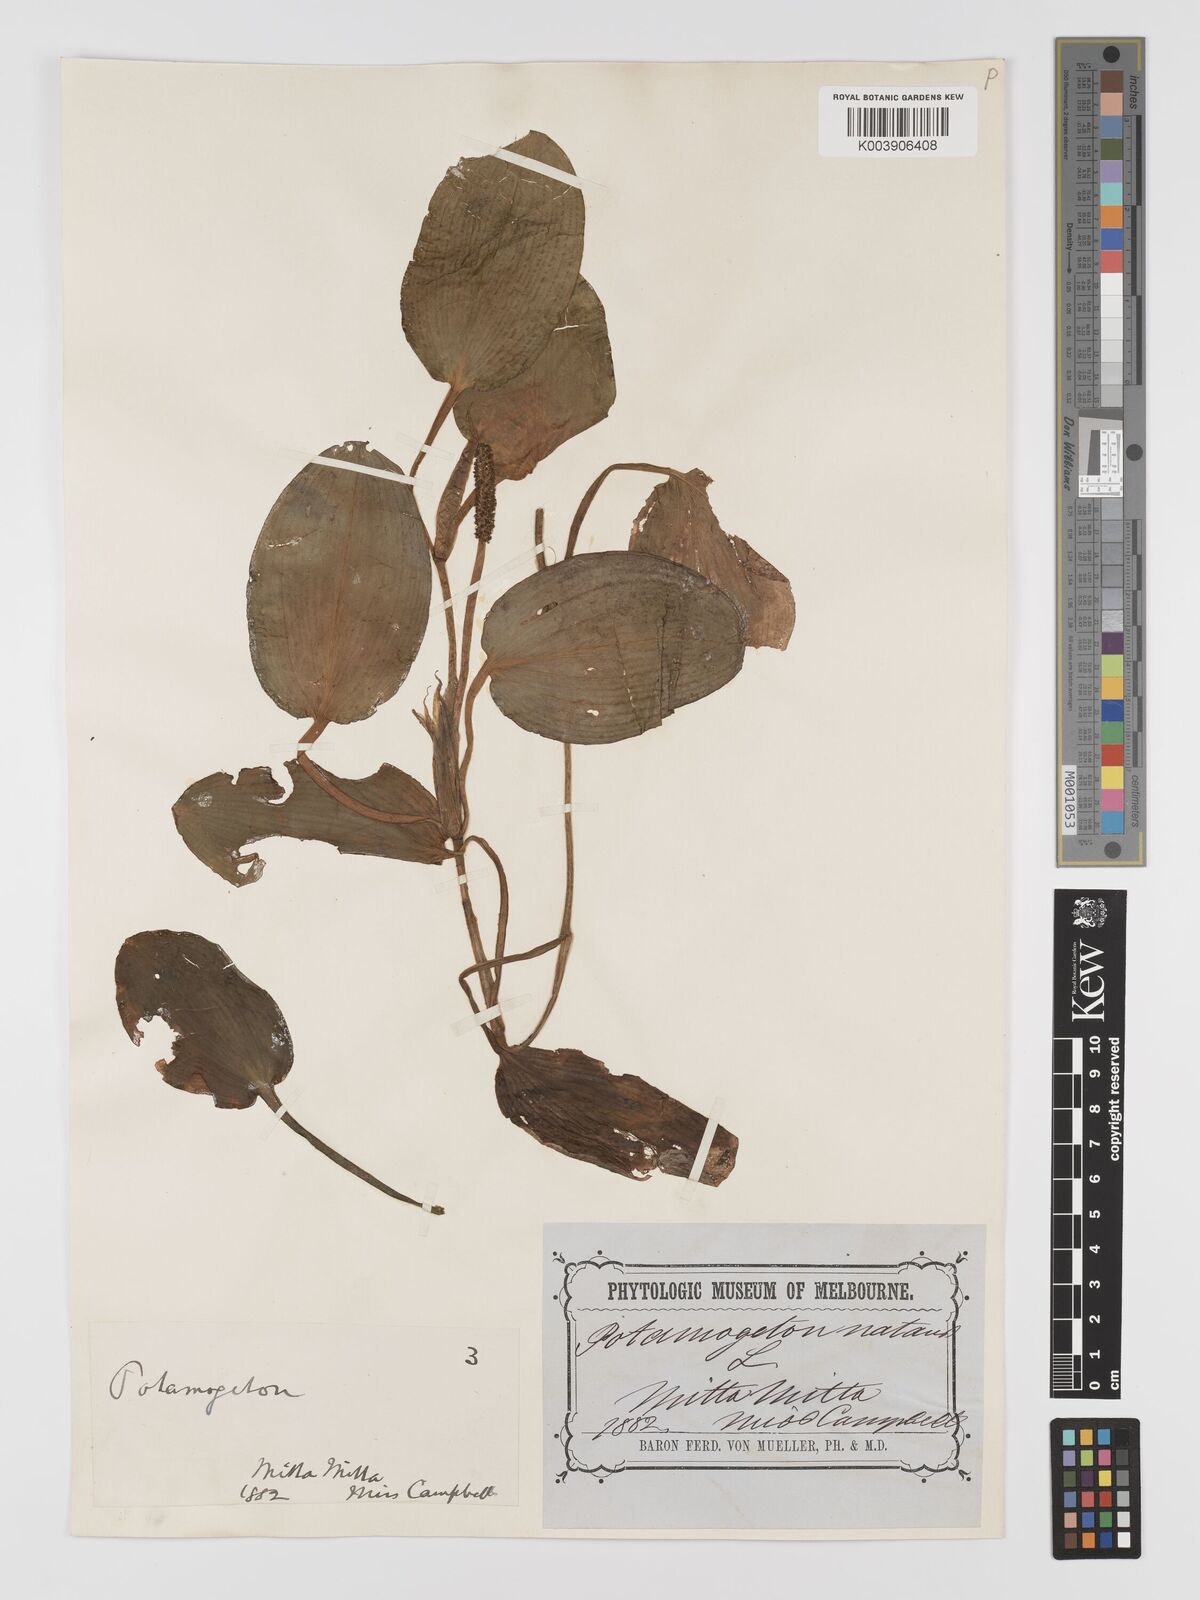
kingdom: Plantae
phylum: Tracheophyta
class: Liliopsida
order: Alismatales
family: Potamogetonaceae
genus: Potamogeton
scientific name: Potamogeton tricarinatus
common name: Pondweed
